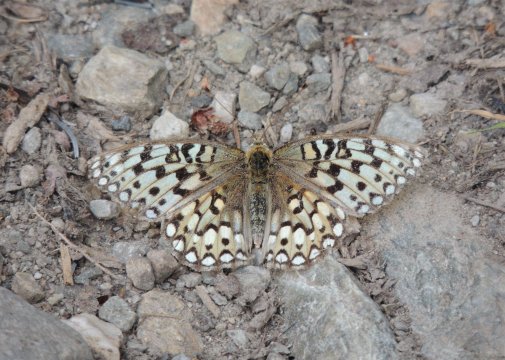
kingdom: Animalia
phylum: Arthropoda
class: Insecta
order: Lepidoptera
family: Nymphalidae
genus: Speyeria
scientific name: Speyeria callippe
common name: Callippe Fritillary
